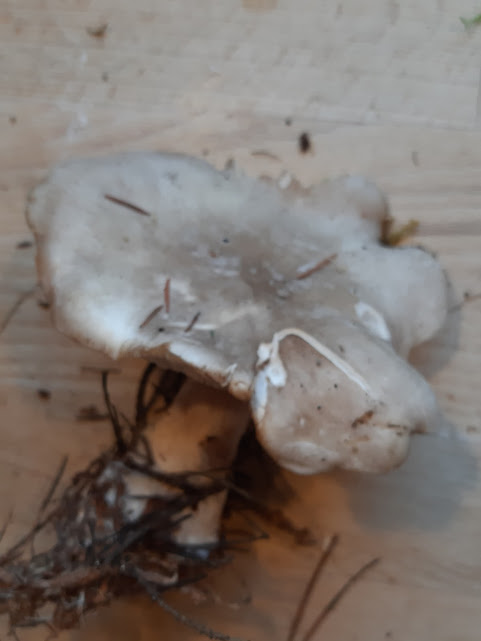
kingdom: Fungi
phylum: Basidiomycota
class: Agaricomycetes
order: Agaricales
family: Tricholomataceae
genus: Clitocybe
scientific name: Clitocybe nebularis
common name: tåge-tragthat
